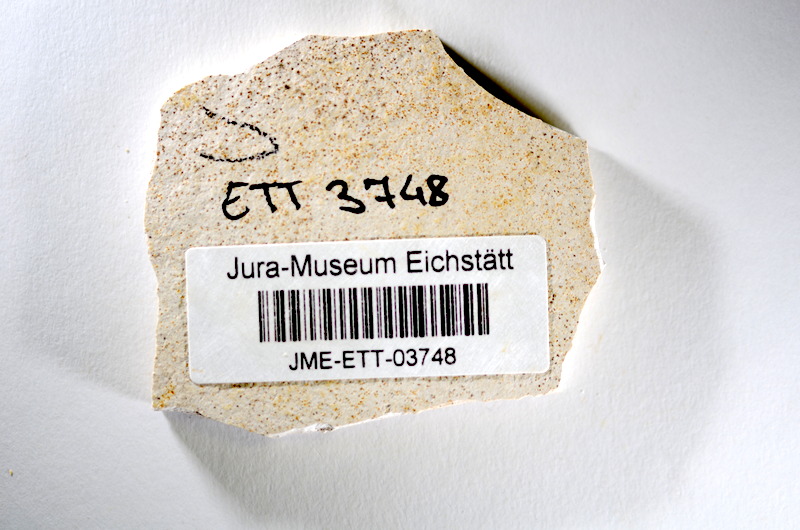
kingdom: Animalia
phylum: Chordata
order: Salmoniformes
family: Orthogonikleithridae
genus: Orthogonikleithrus
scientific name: Orthogonikleithrus hoelli
